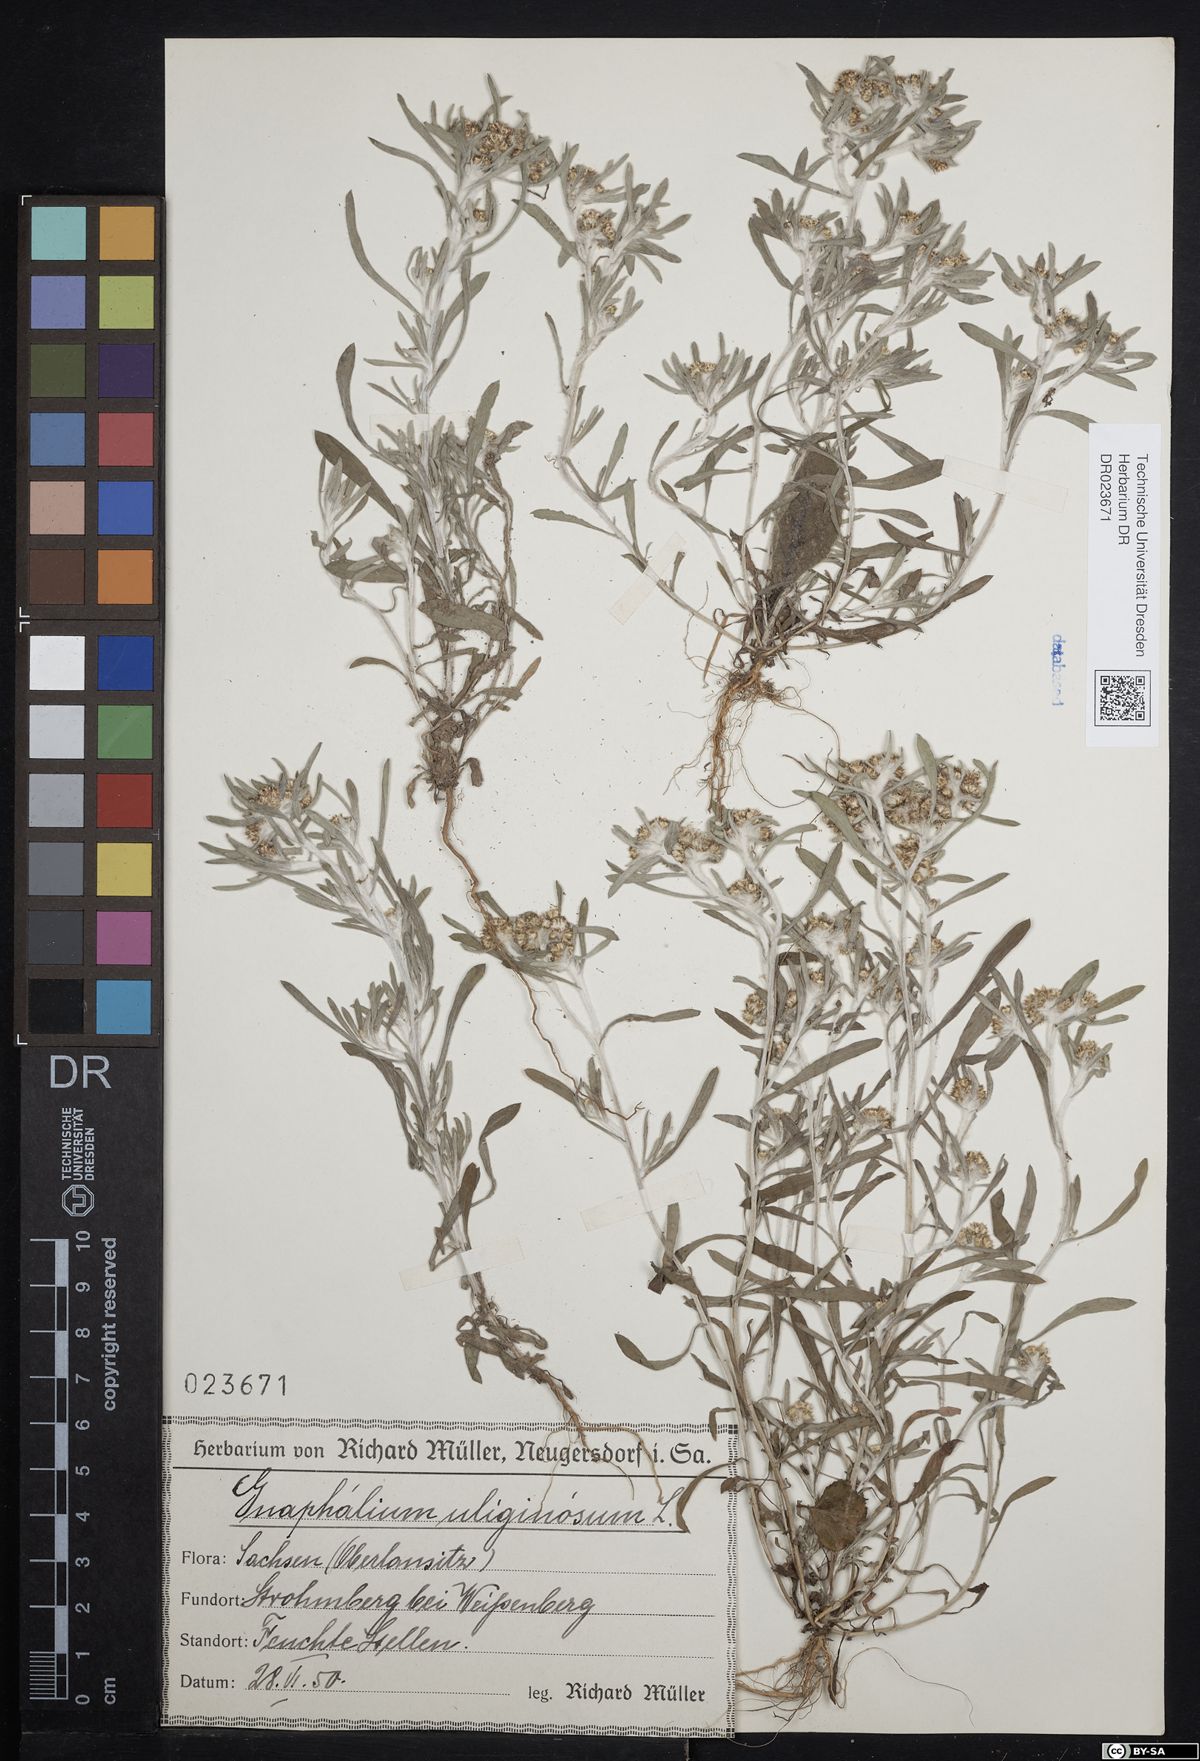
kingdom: Plantae
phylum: Tracheophyta
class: Magnoliopsida
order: Asterales
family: Asteraceae
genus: Gnaphalium
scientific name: Gnaphalium uliginosum
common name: Marsh cudweed
